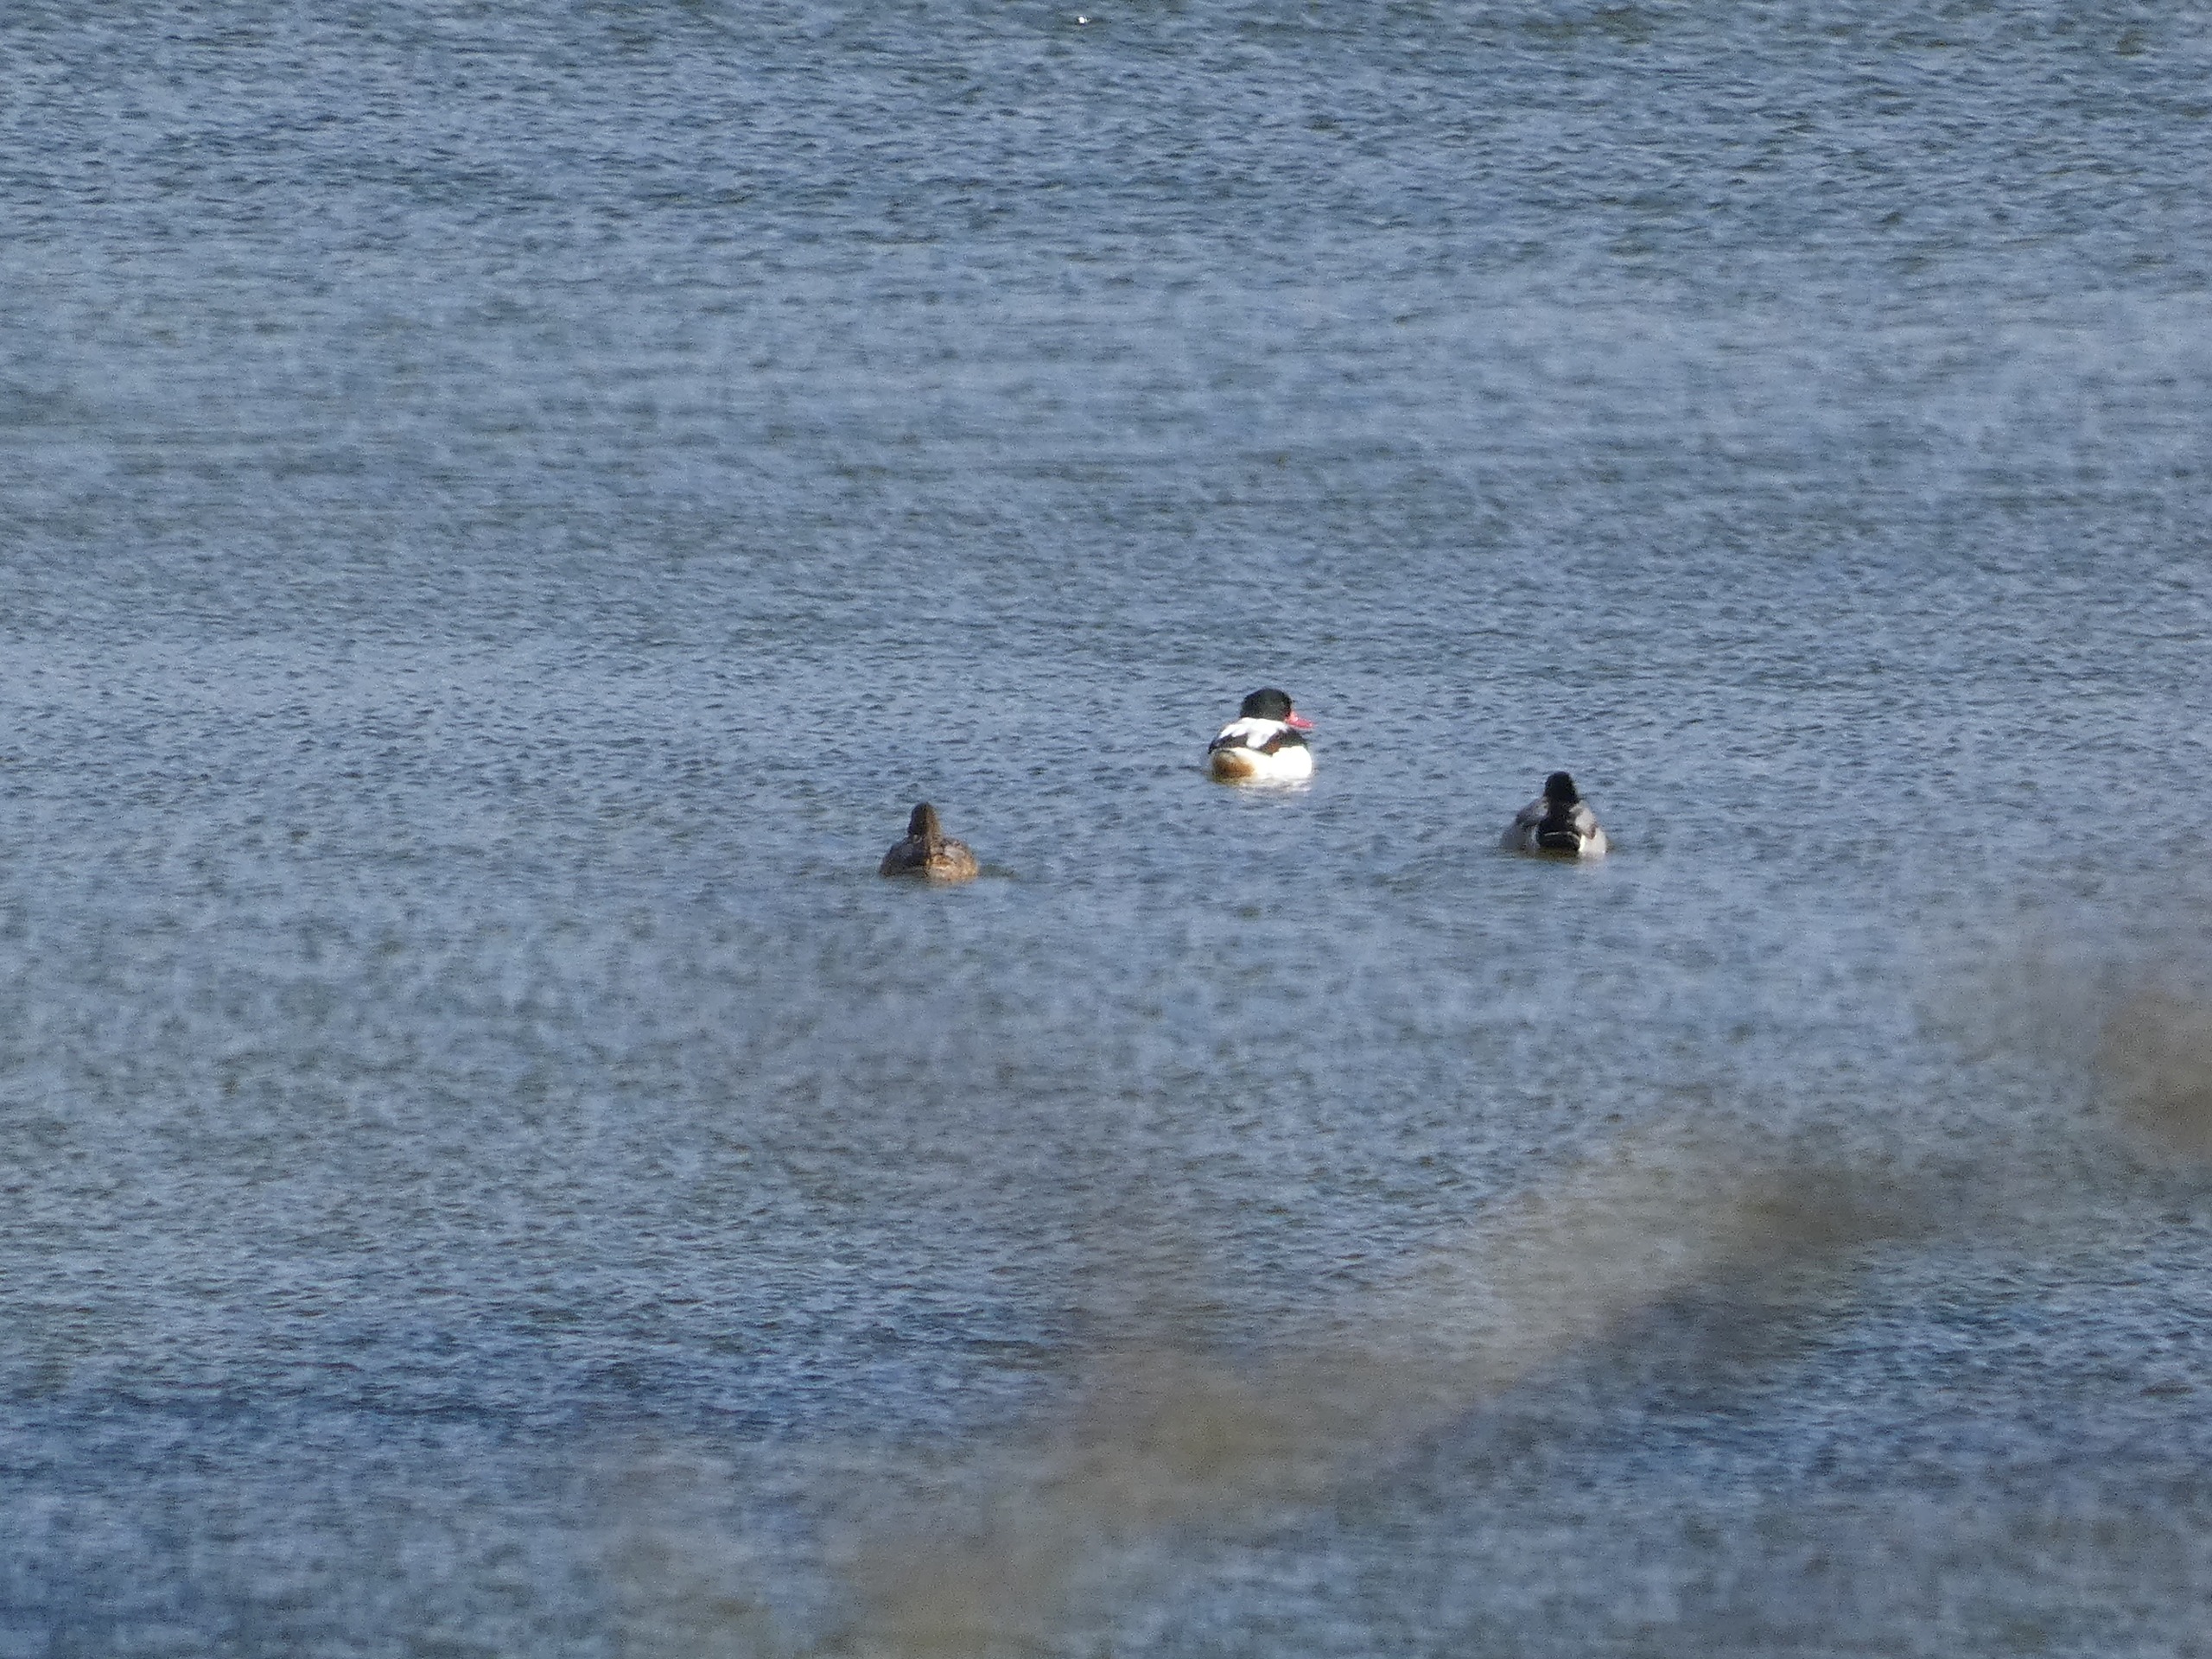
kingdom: Animalia
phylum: Chordata
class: Aves
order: Anseriformes
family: Anatidae
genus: Tadorna
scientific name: Tadorna tadorna
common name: Gravand
